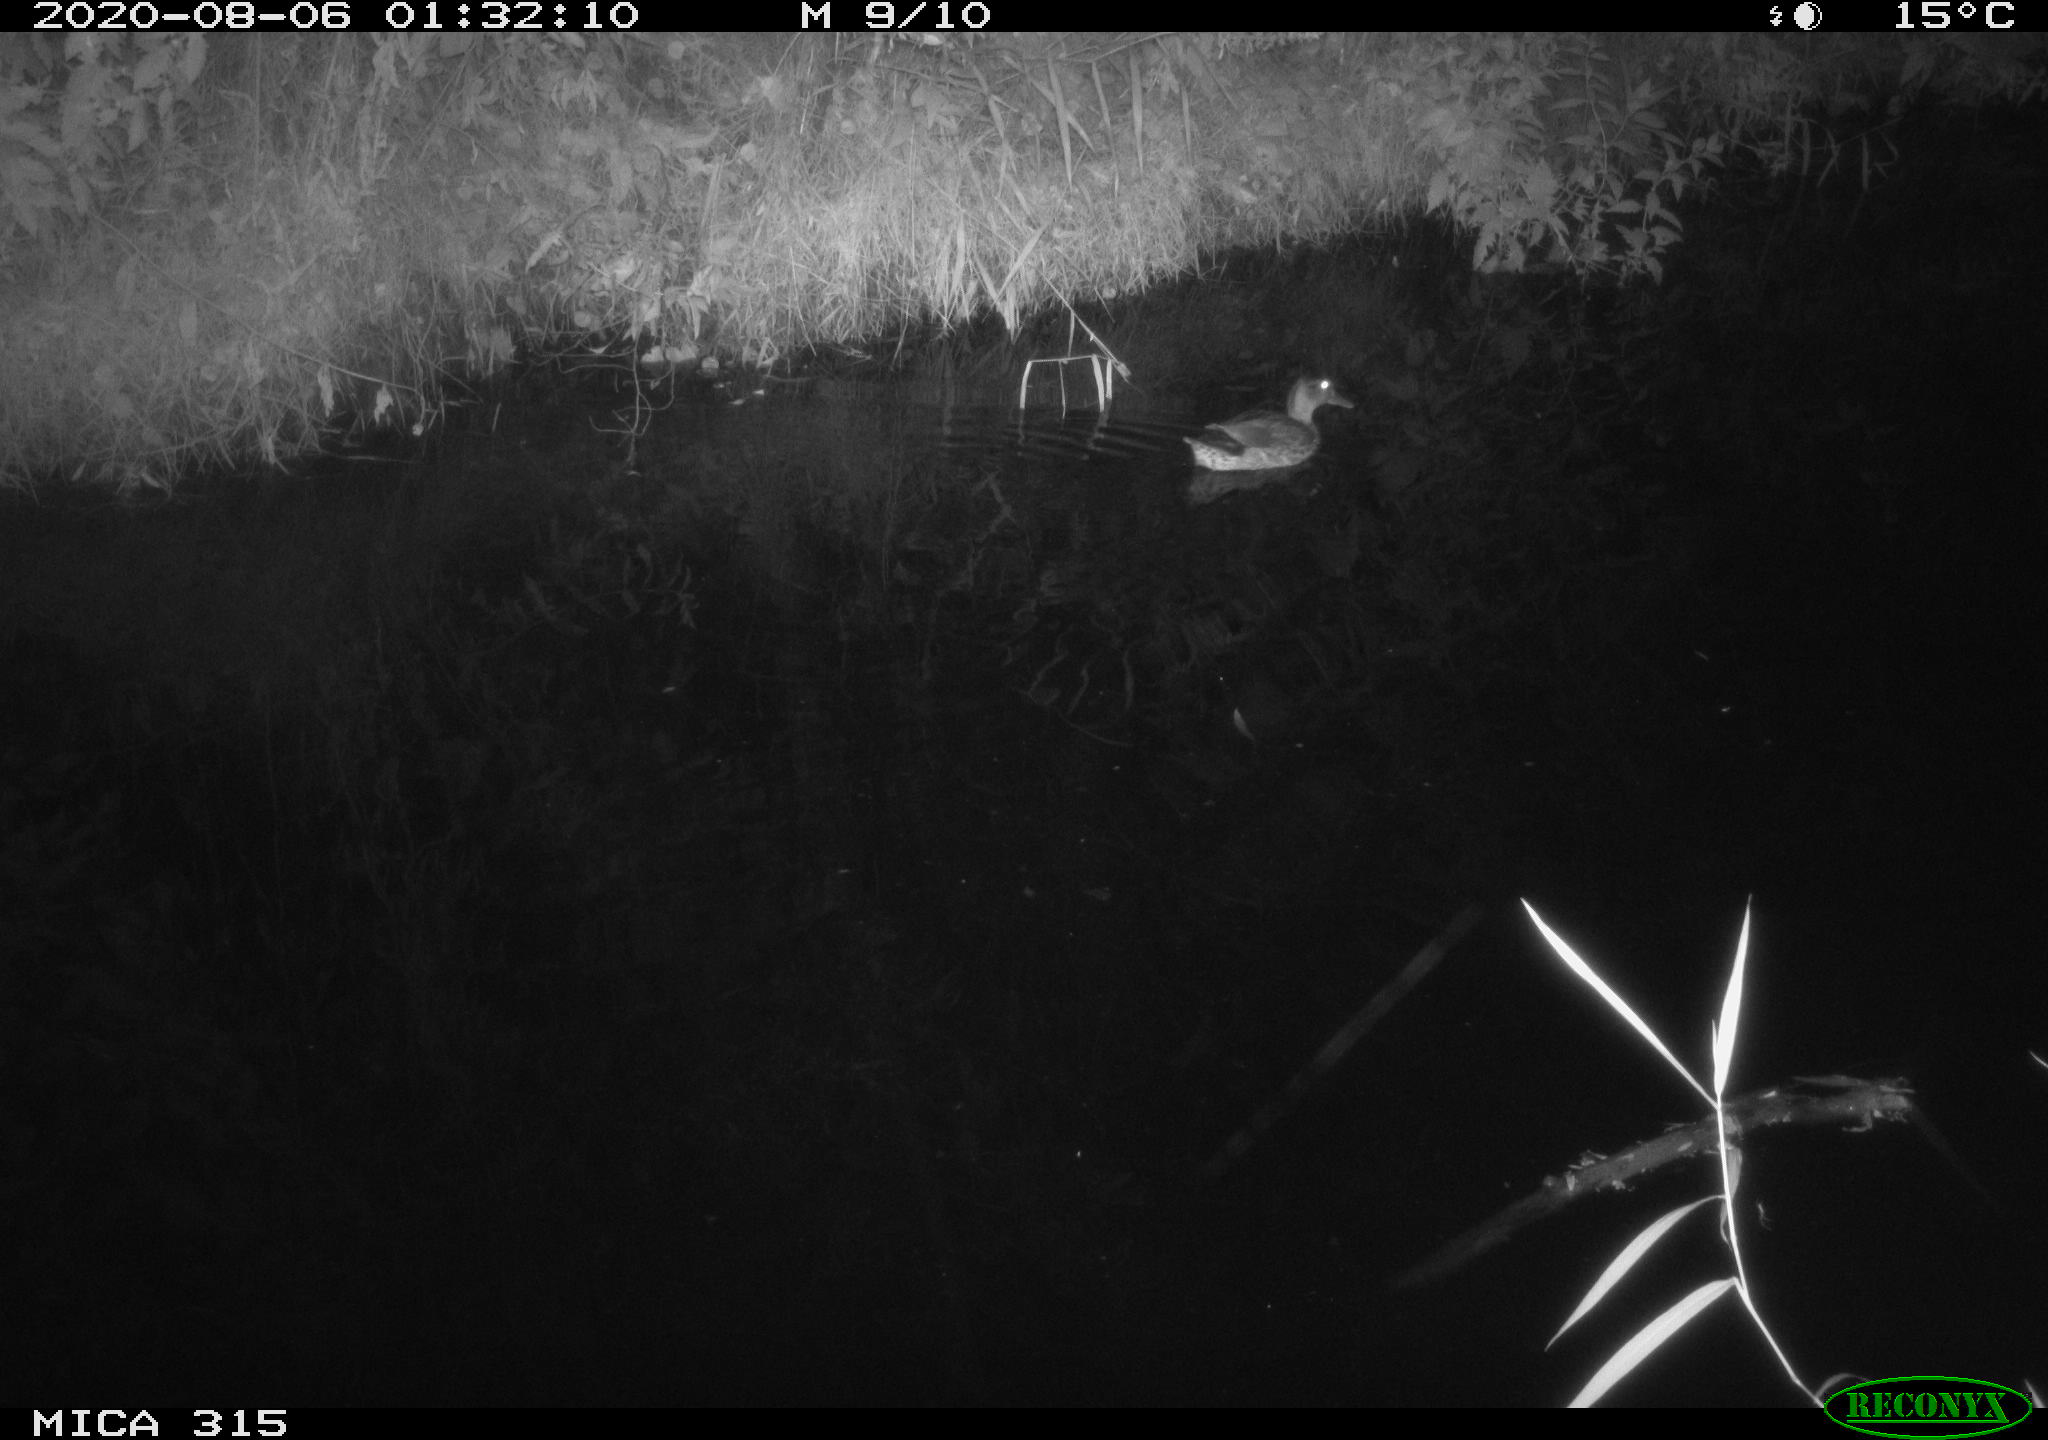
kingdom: Animalia
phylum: Chordata
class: Aves
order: Anseriformes
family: Anatidae
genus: Anas
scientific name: Anas platyrhynchos
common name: Mallard
